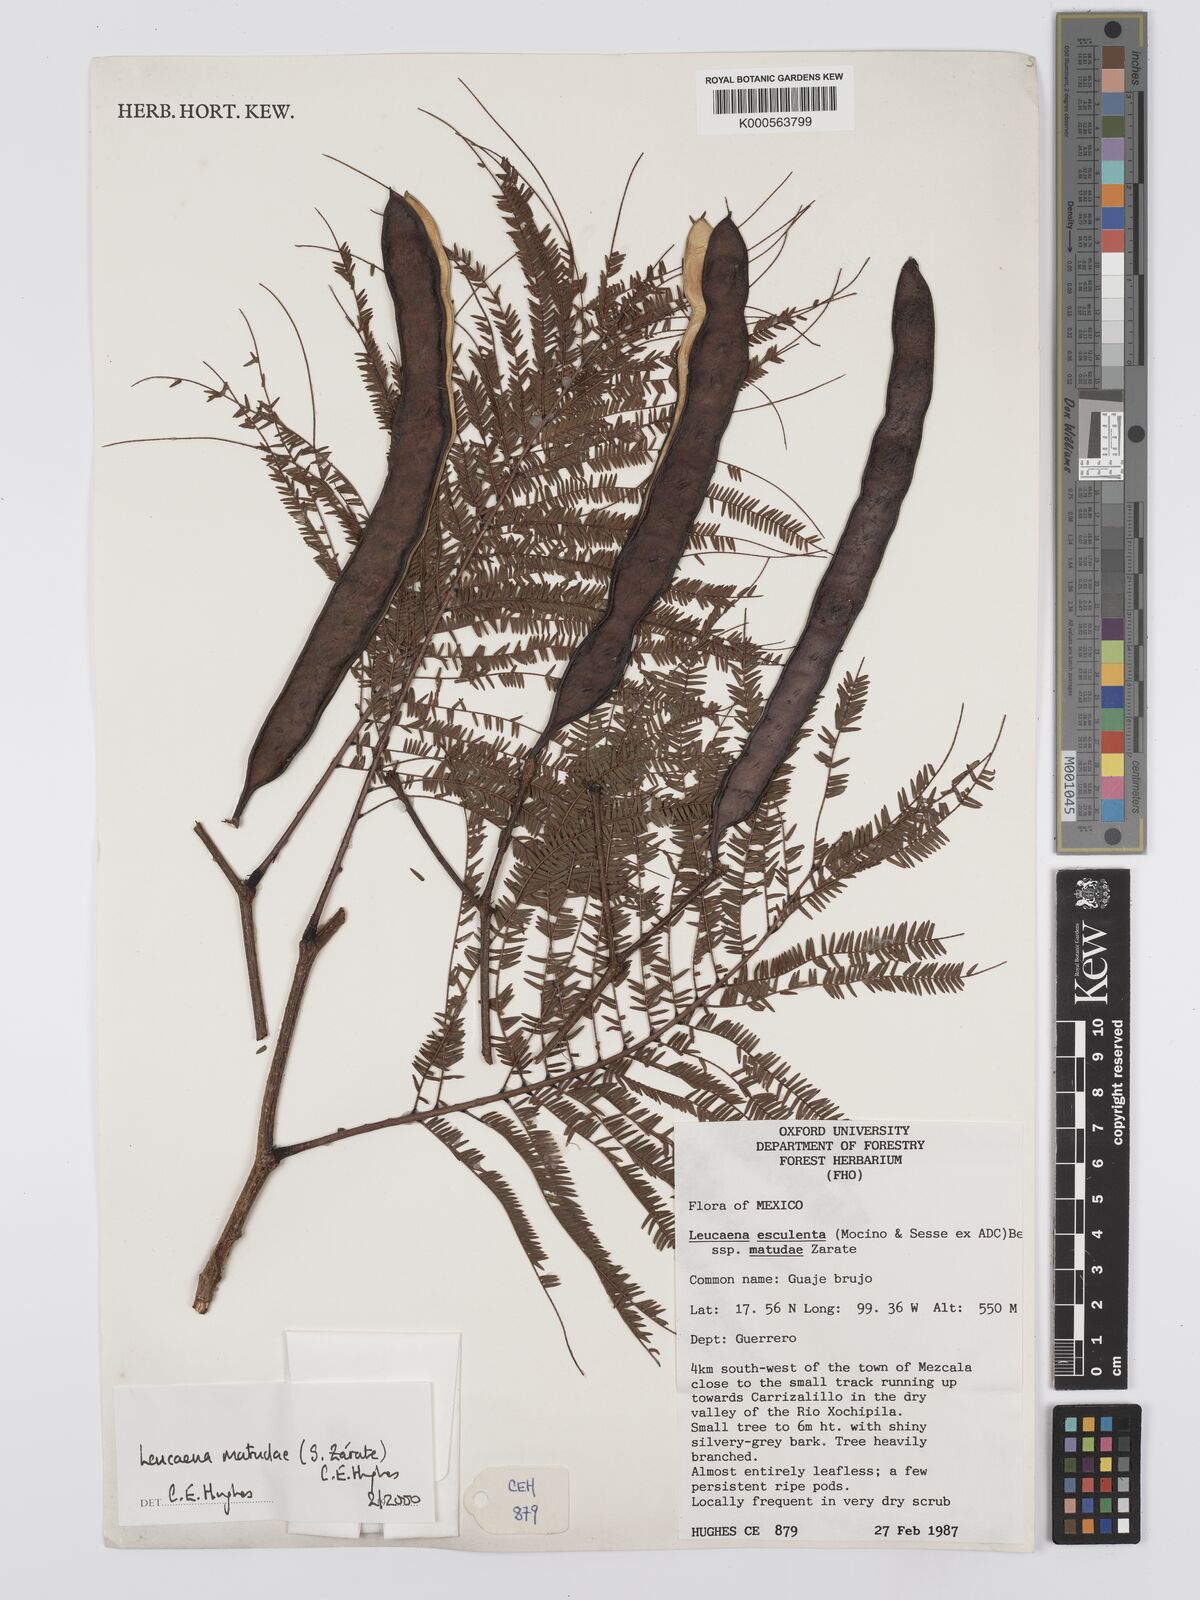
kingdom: Plantae
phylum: Tracheophyta
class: Magnoliopsida
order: Fabales
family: Fabaceae
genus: Leucaena
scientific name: Leucaena
